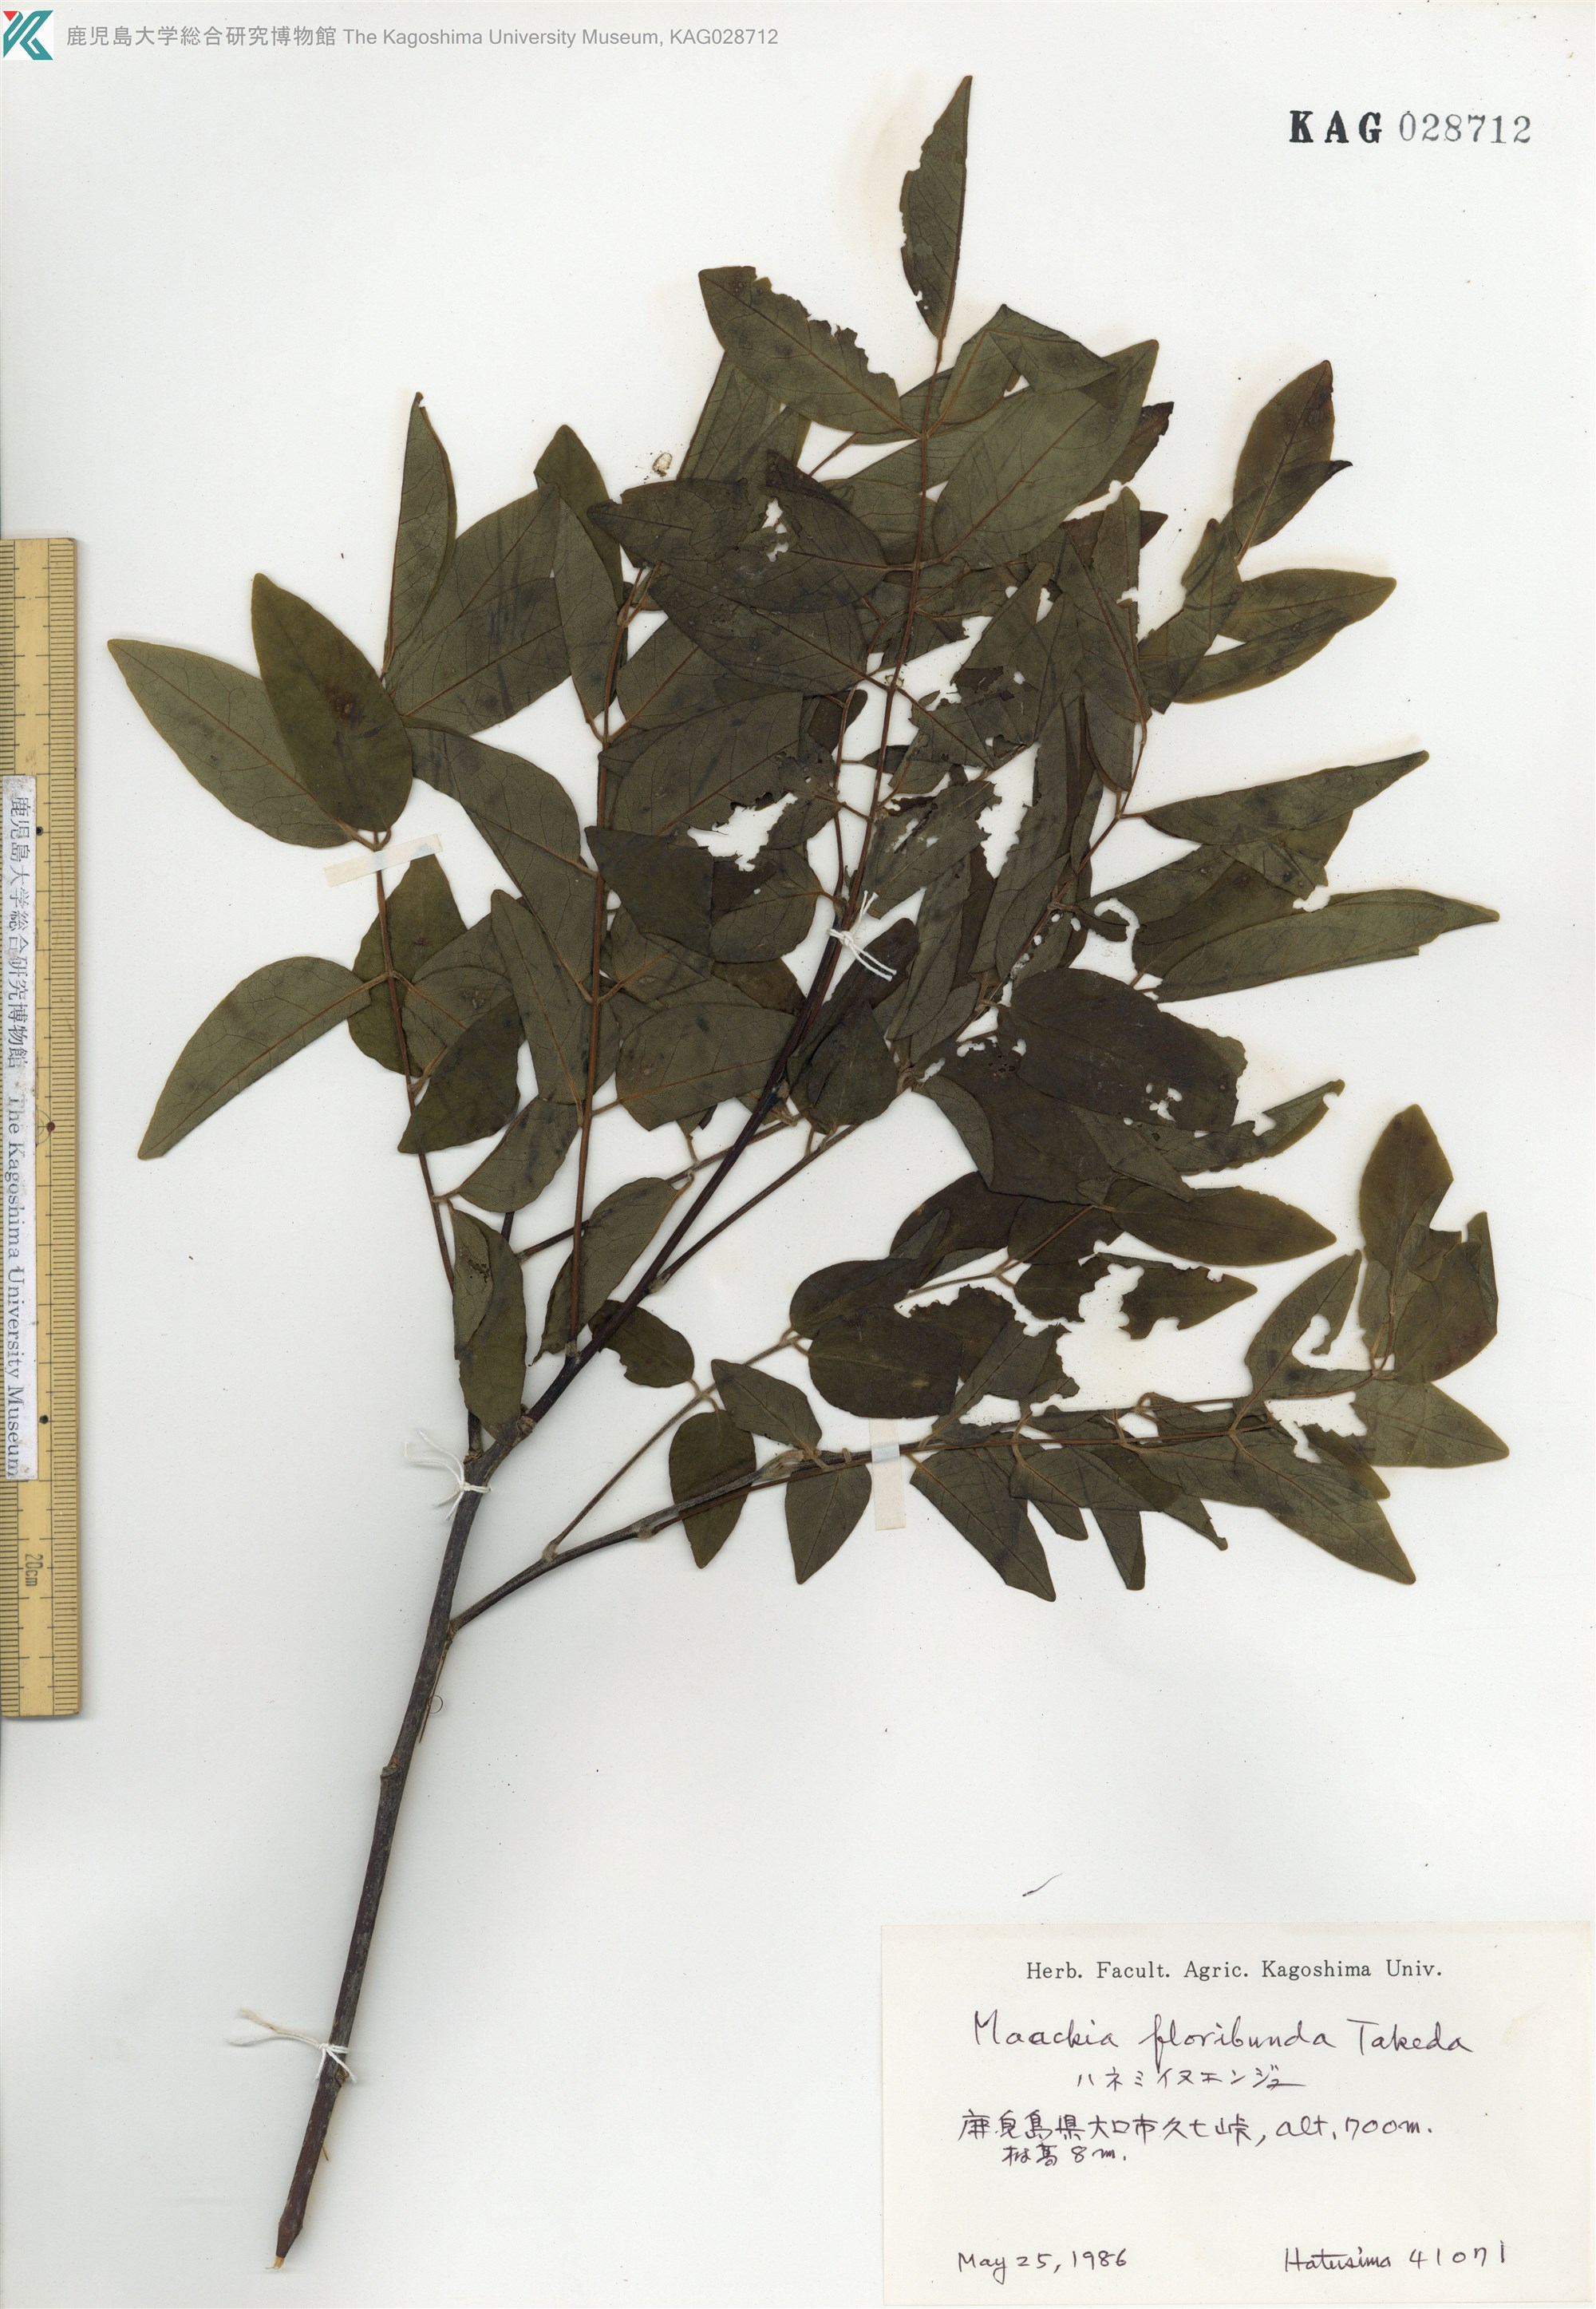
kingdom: Plantae
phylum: Tracheophyta
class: Magnoliopsida
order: Fabales
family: Fabaceae
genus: Maackia
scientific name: Maackia amurensis
